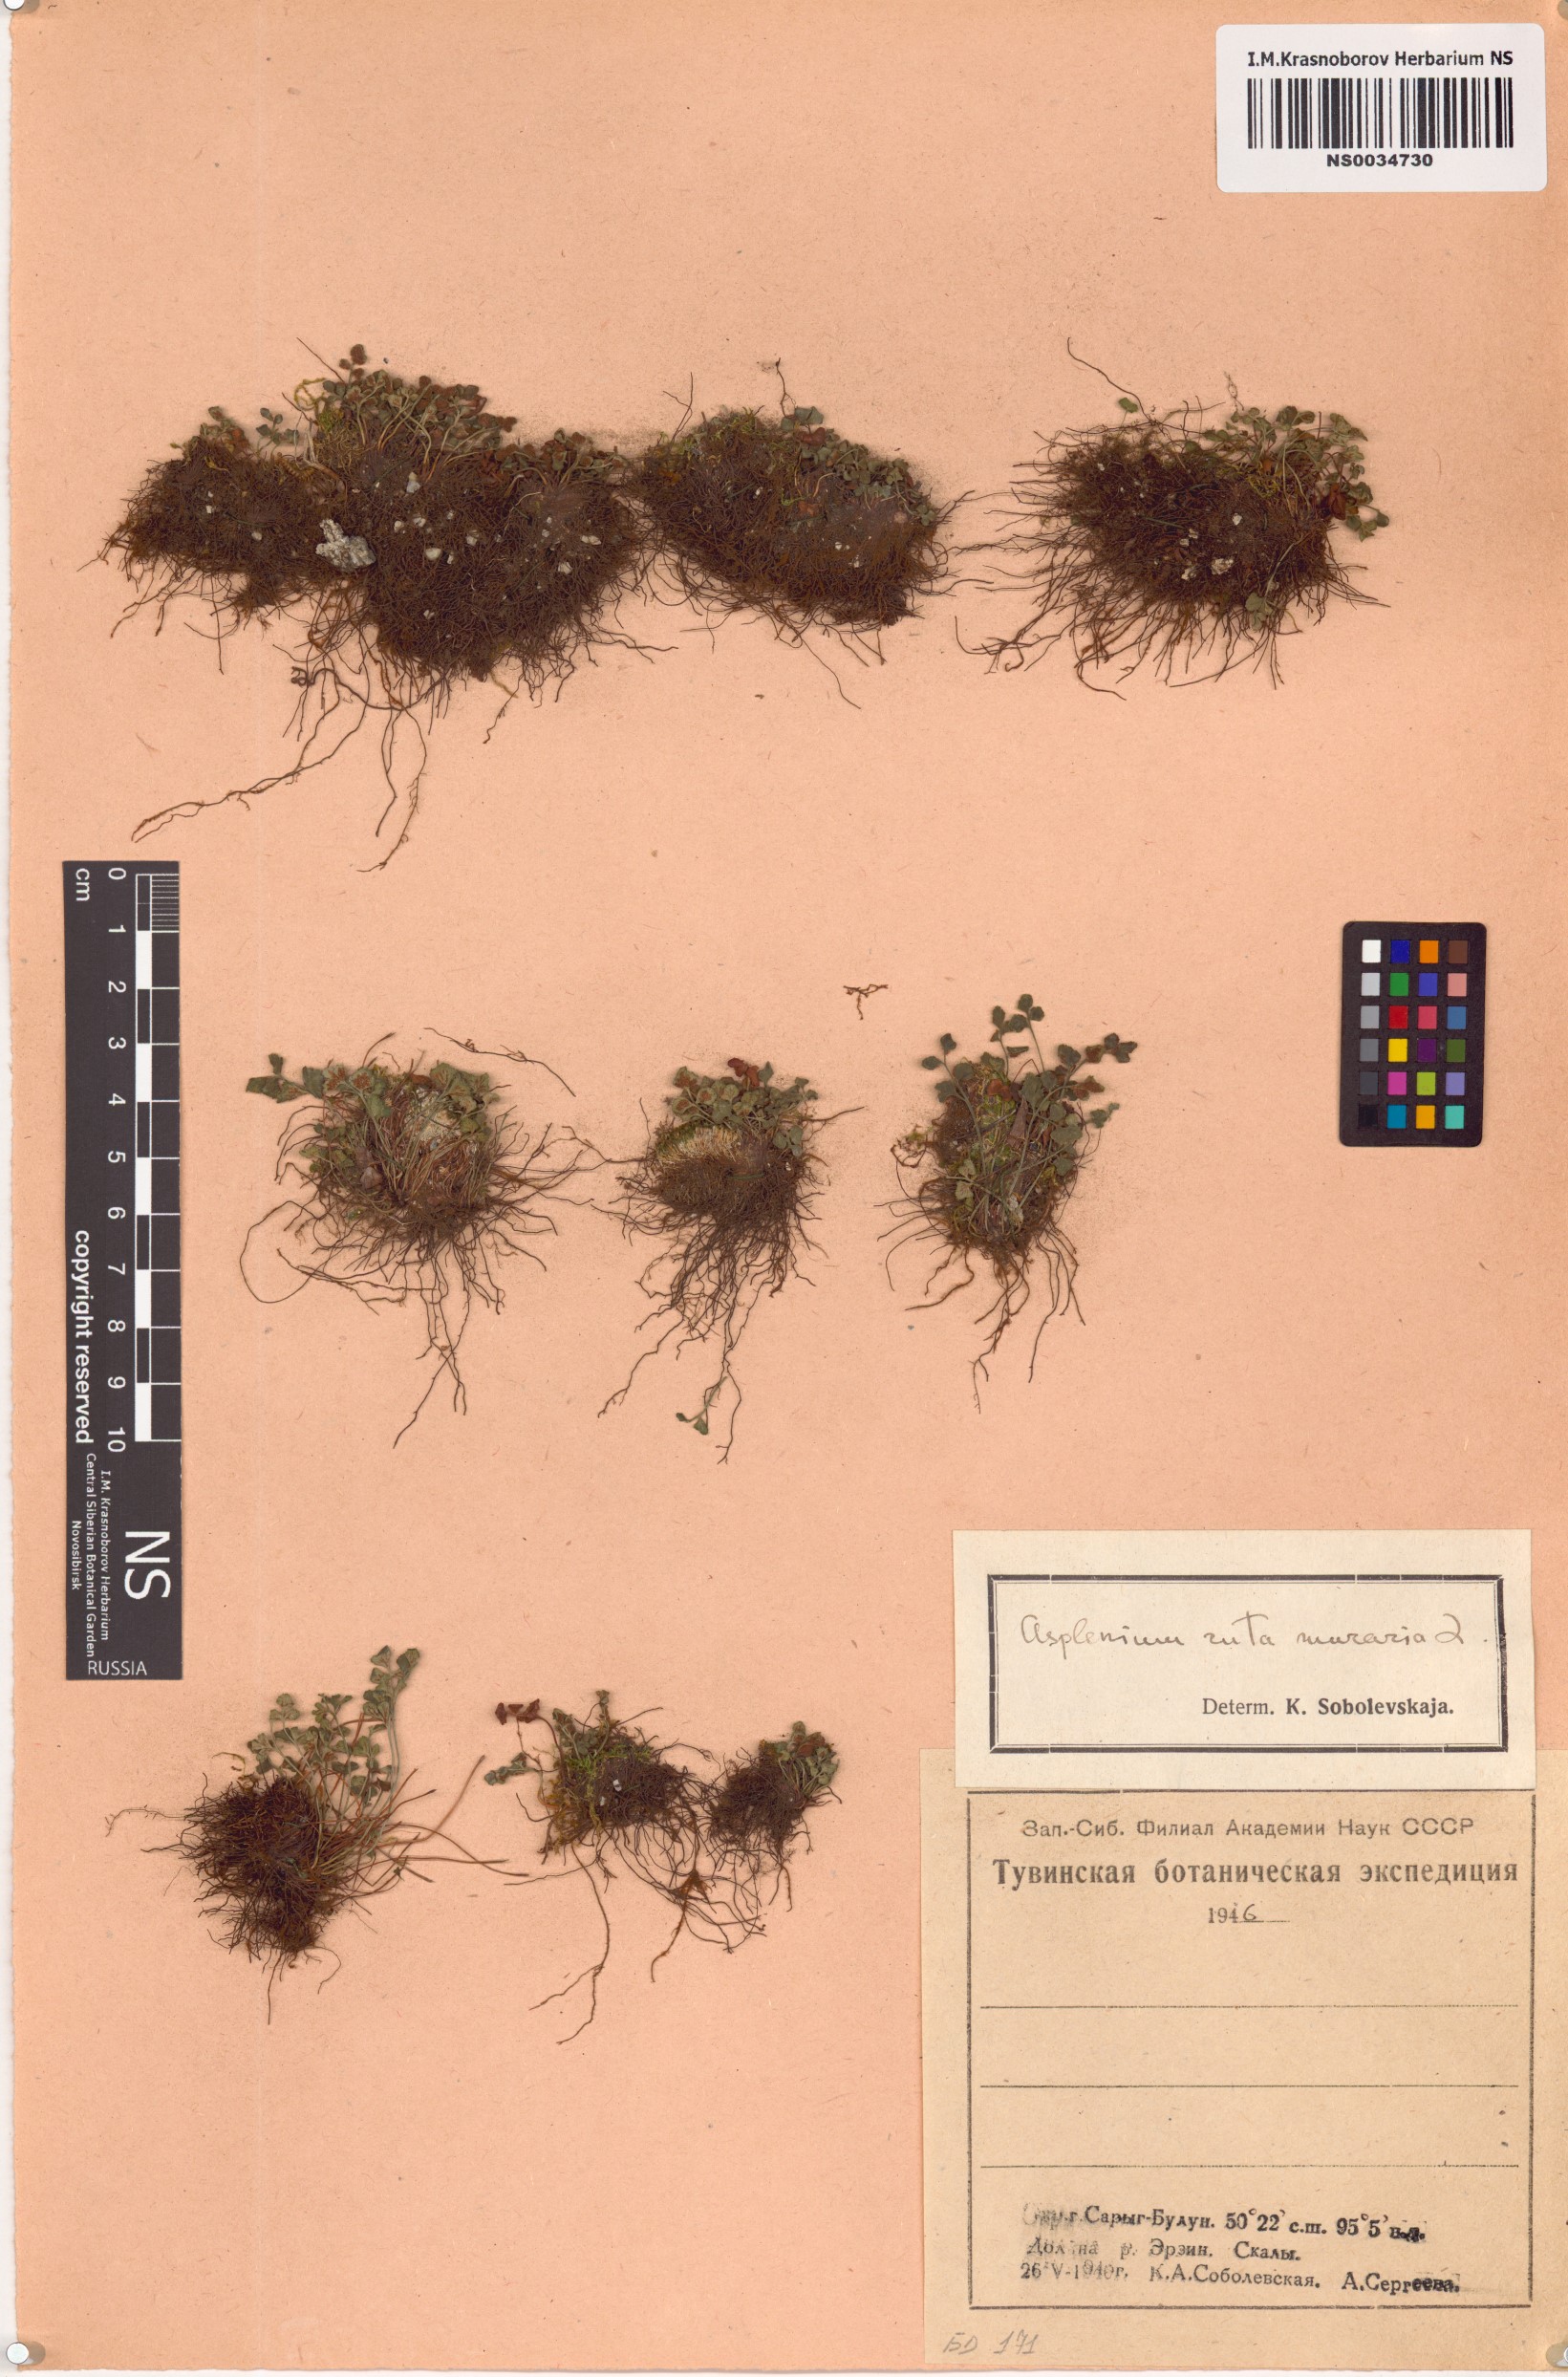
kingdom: Plantae
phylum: Tracheophyta
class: Polypodiopsida
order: Polypodiales
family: Aspleniaceae
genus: Asplenium
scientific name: Asplenium ruta-muraria
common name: Wall-rue
